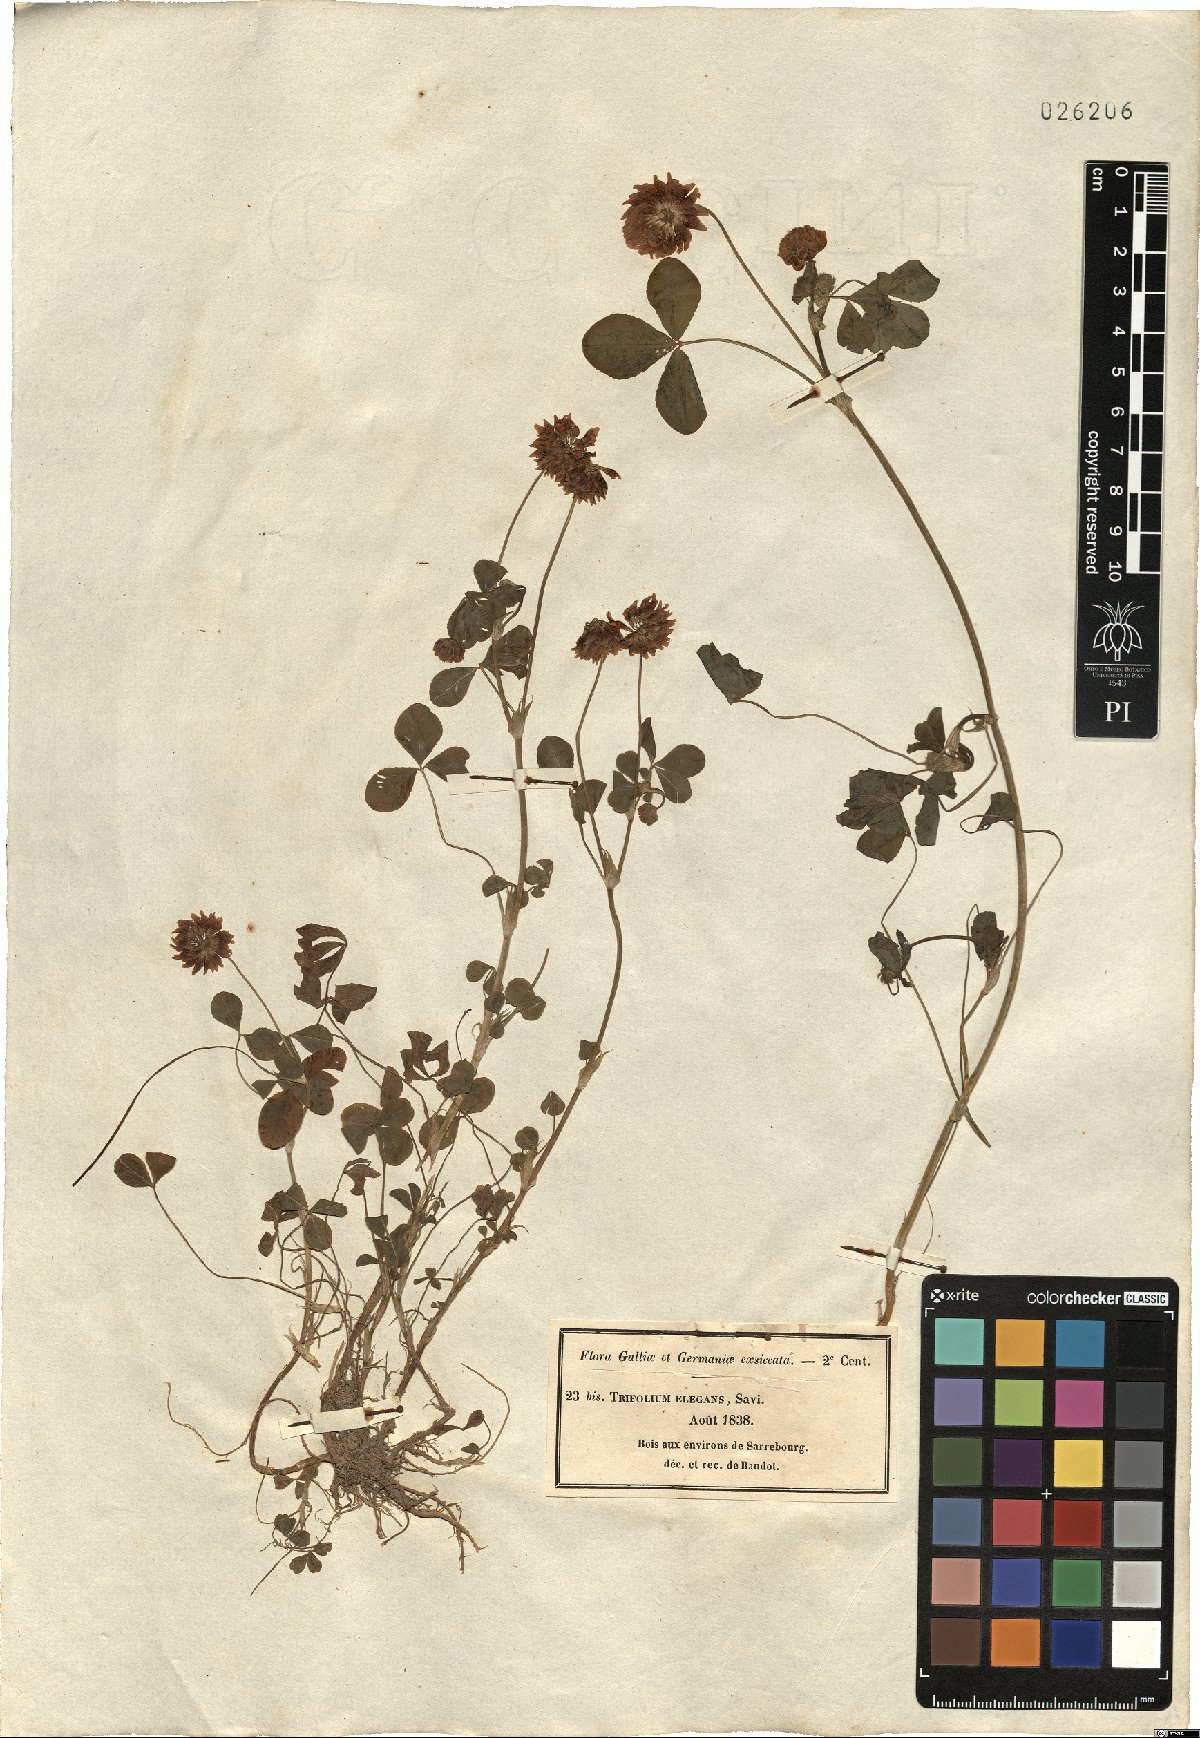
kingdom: Plantae
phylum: Tracheophyta
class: Magnoliopsida
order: Fabales
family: Fabaceae
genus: Trifolium
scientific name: Trifolium hybridum
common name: Alsike clover
